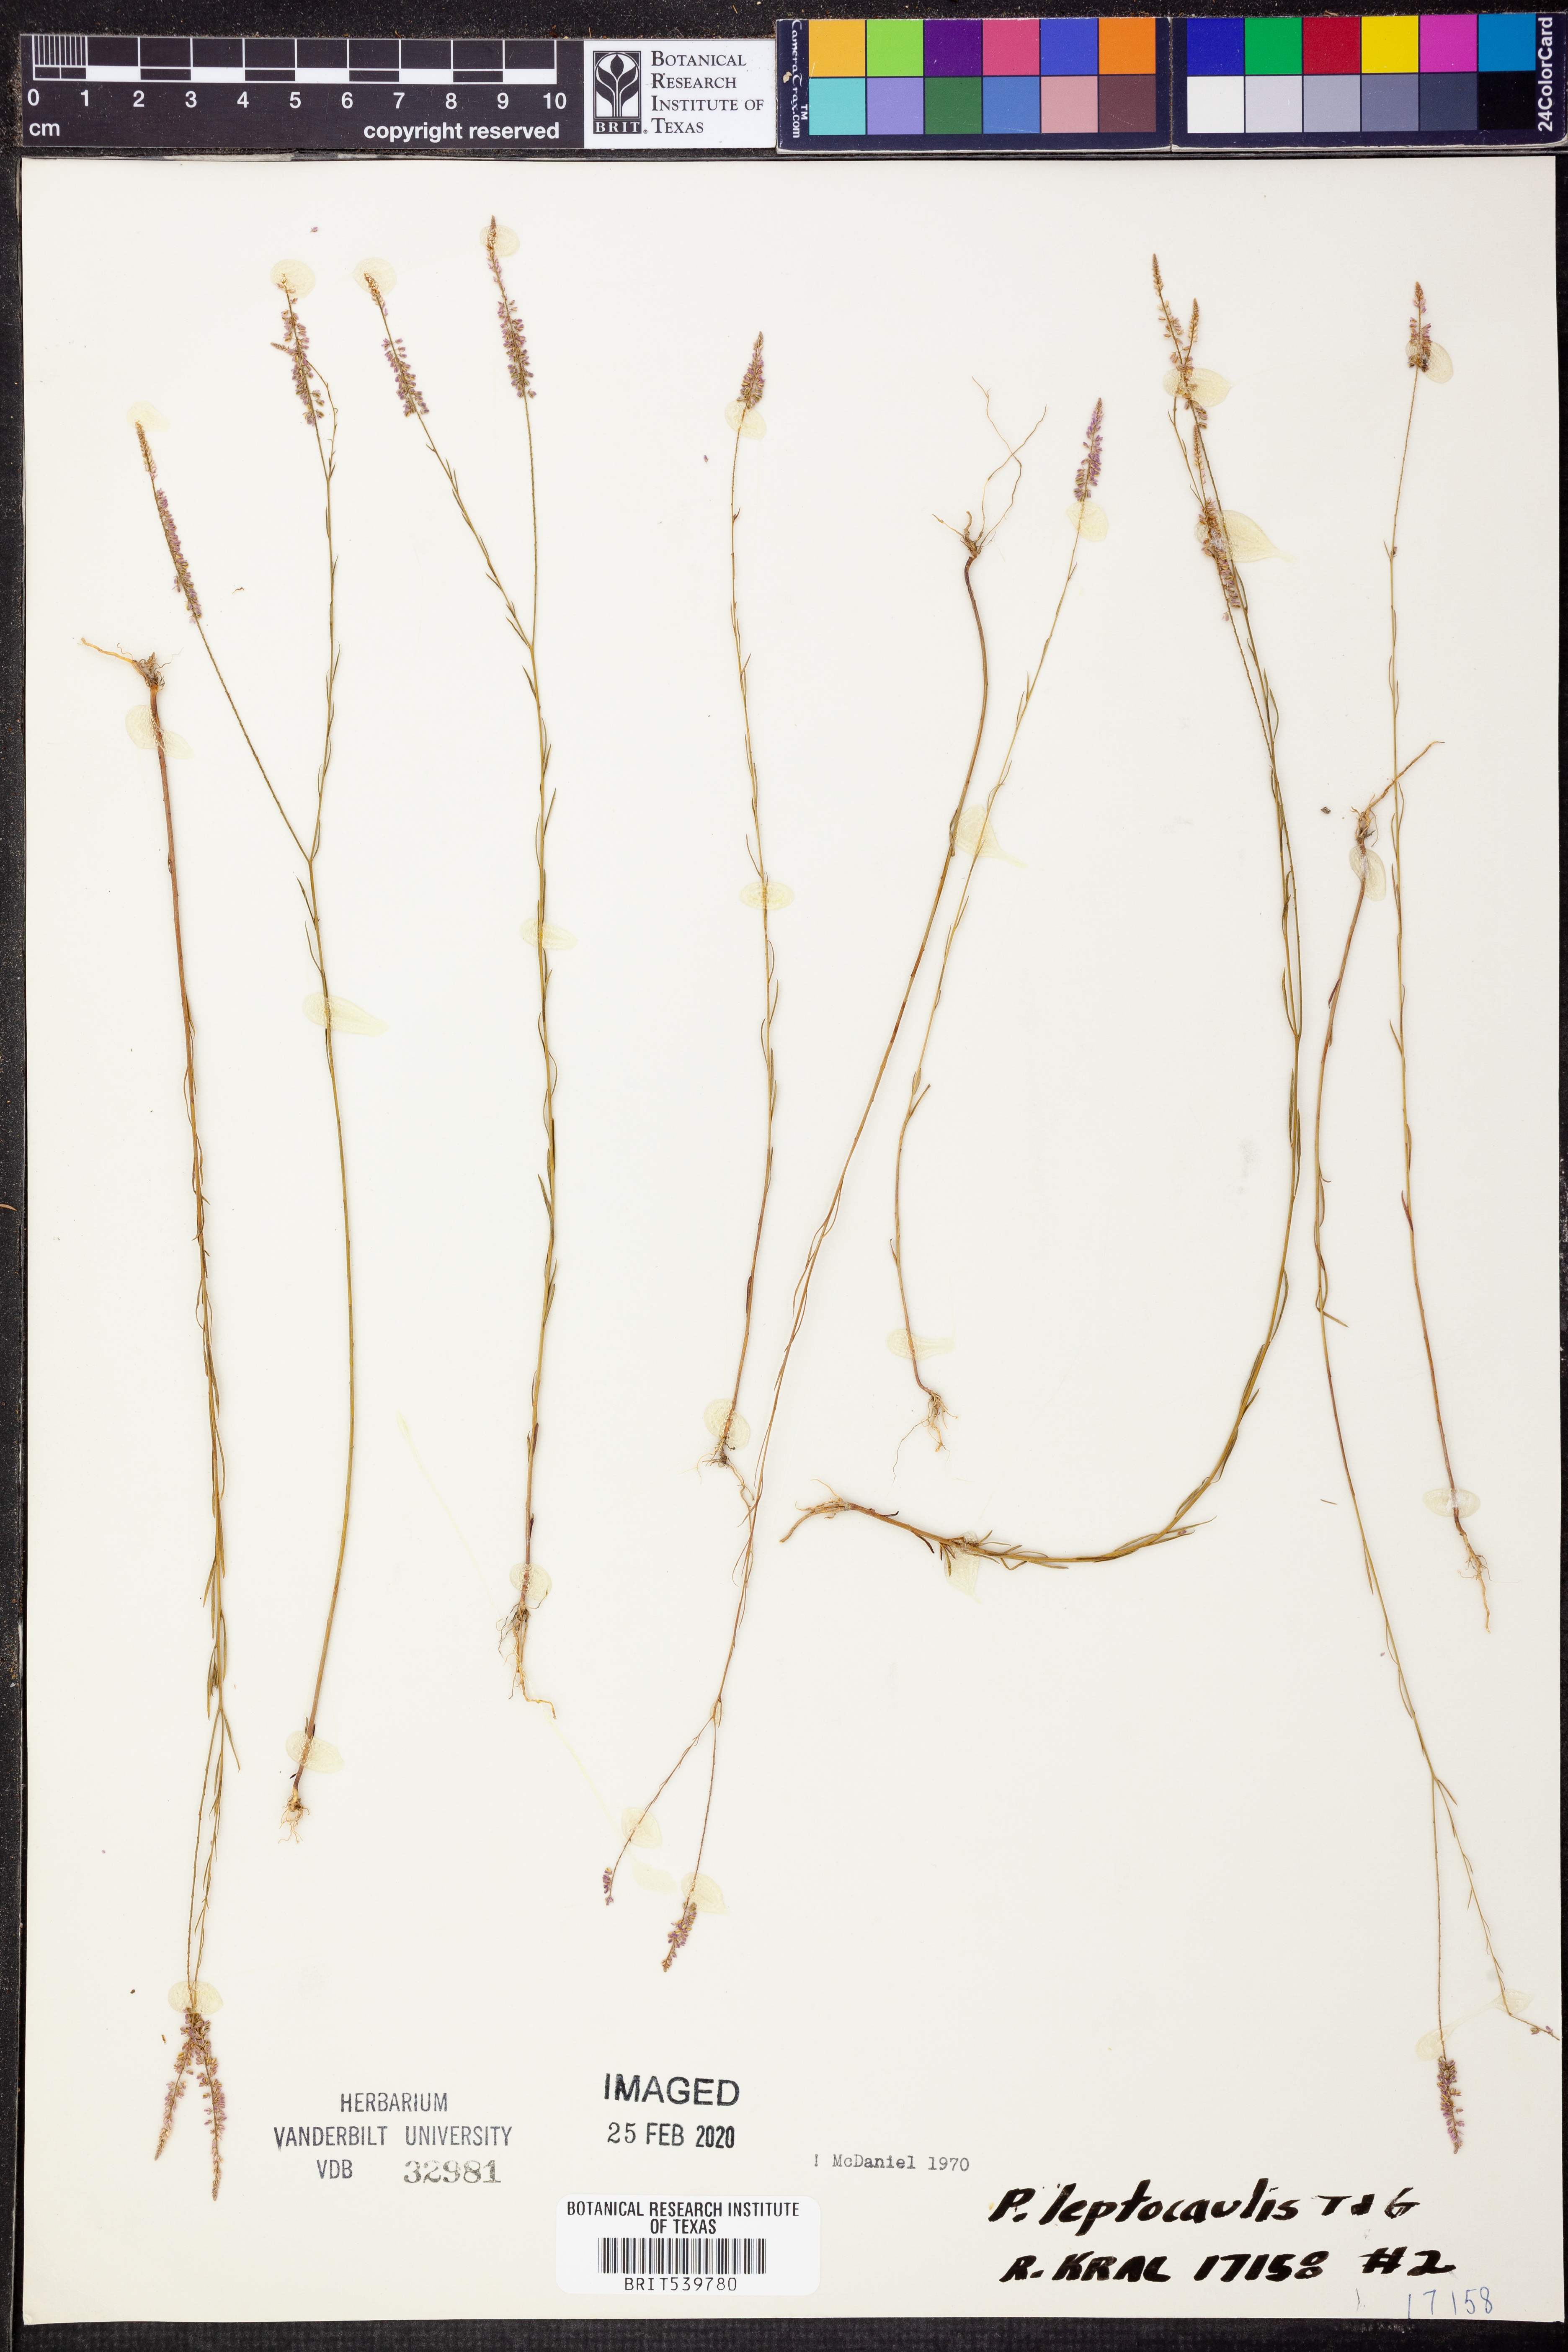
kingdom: Plantae
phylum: Tracheophyta
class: Magnoliopsida
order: Fabales
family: Polygalaceae
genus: Polygala
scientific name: Polygala tenella
